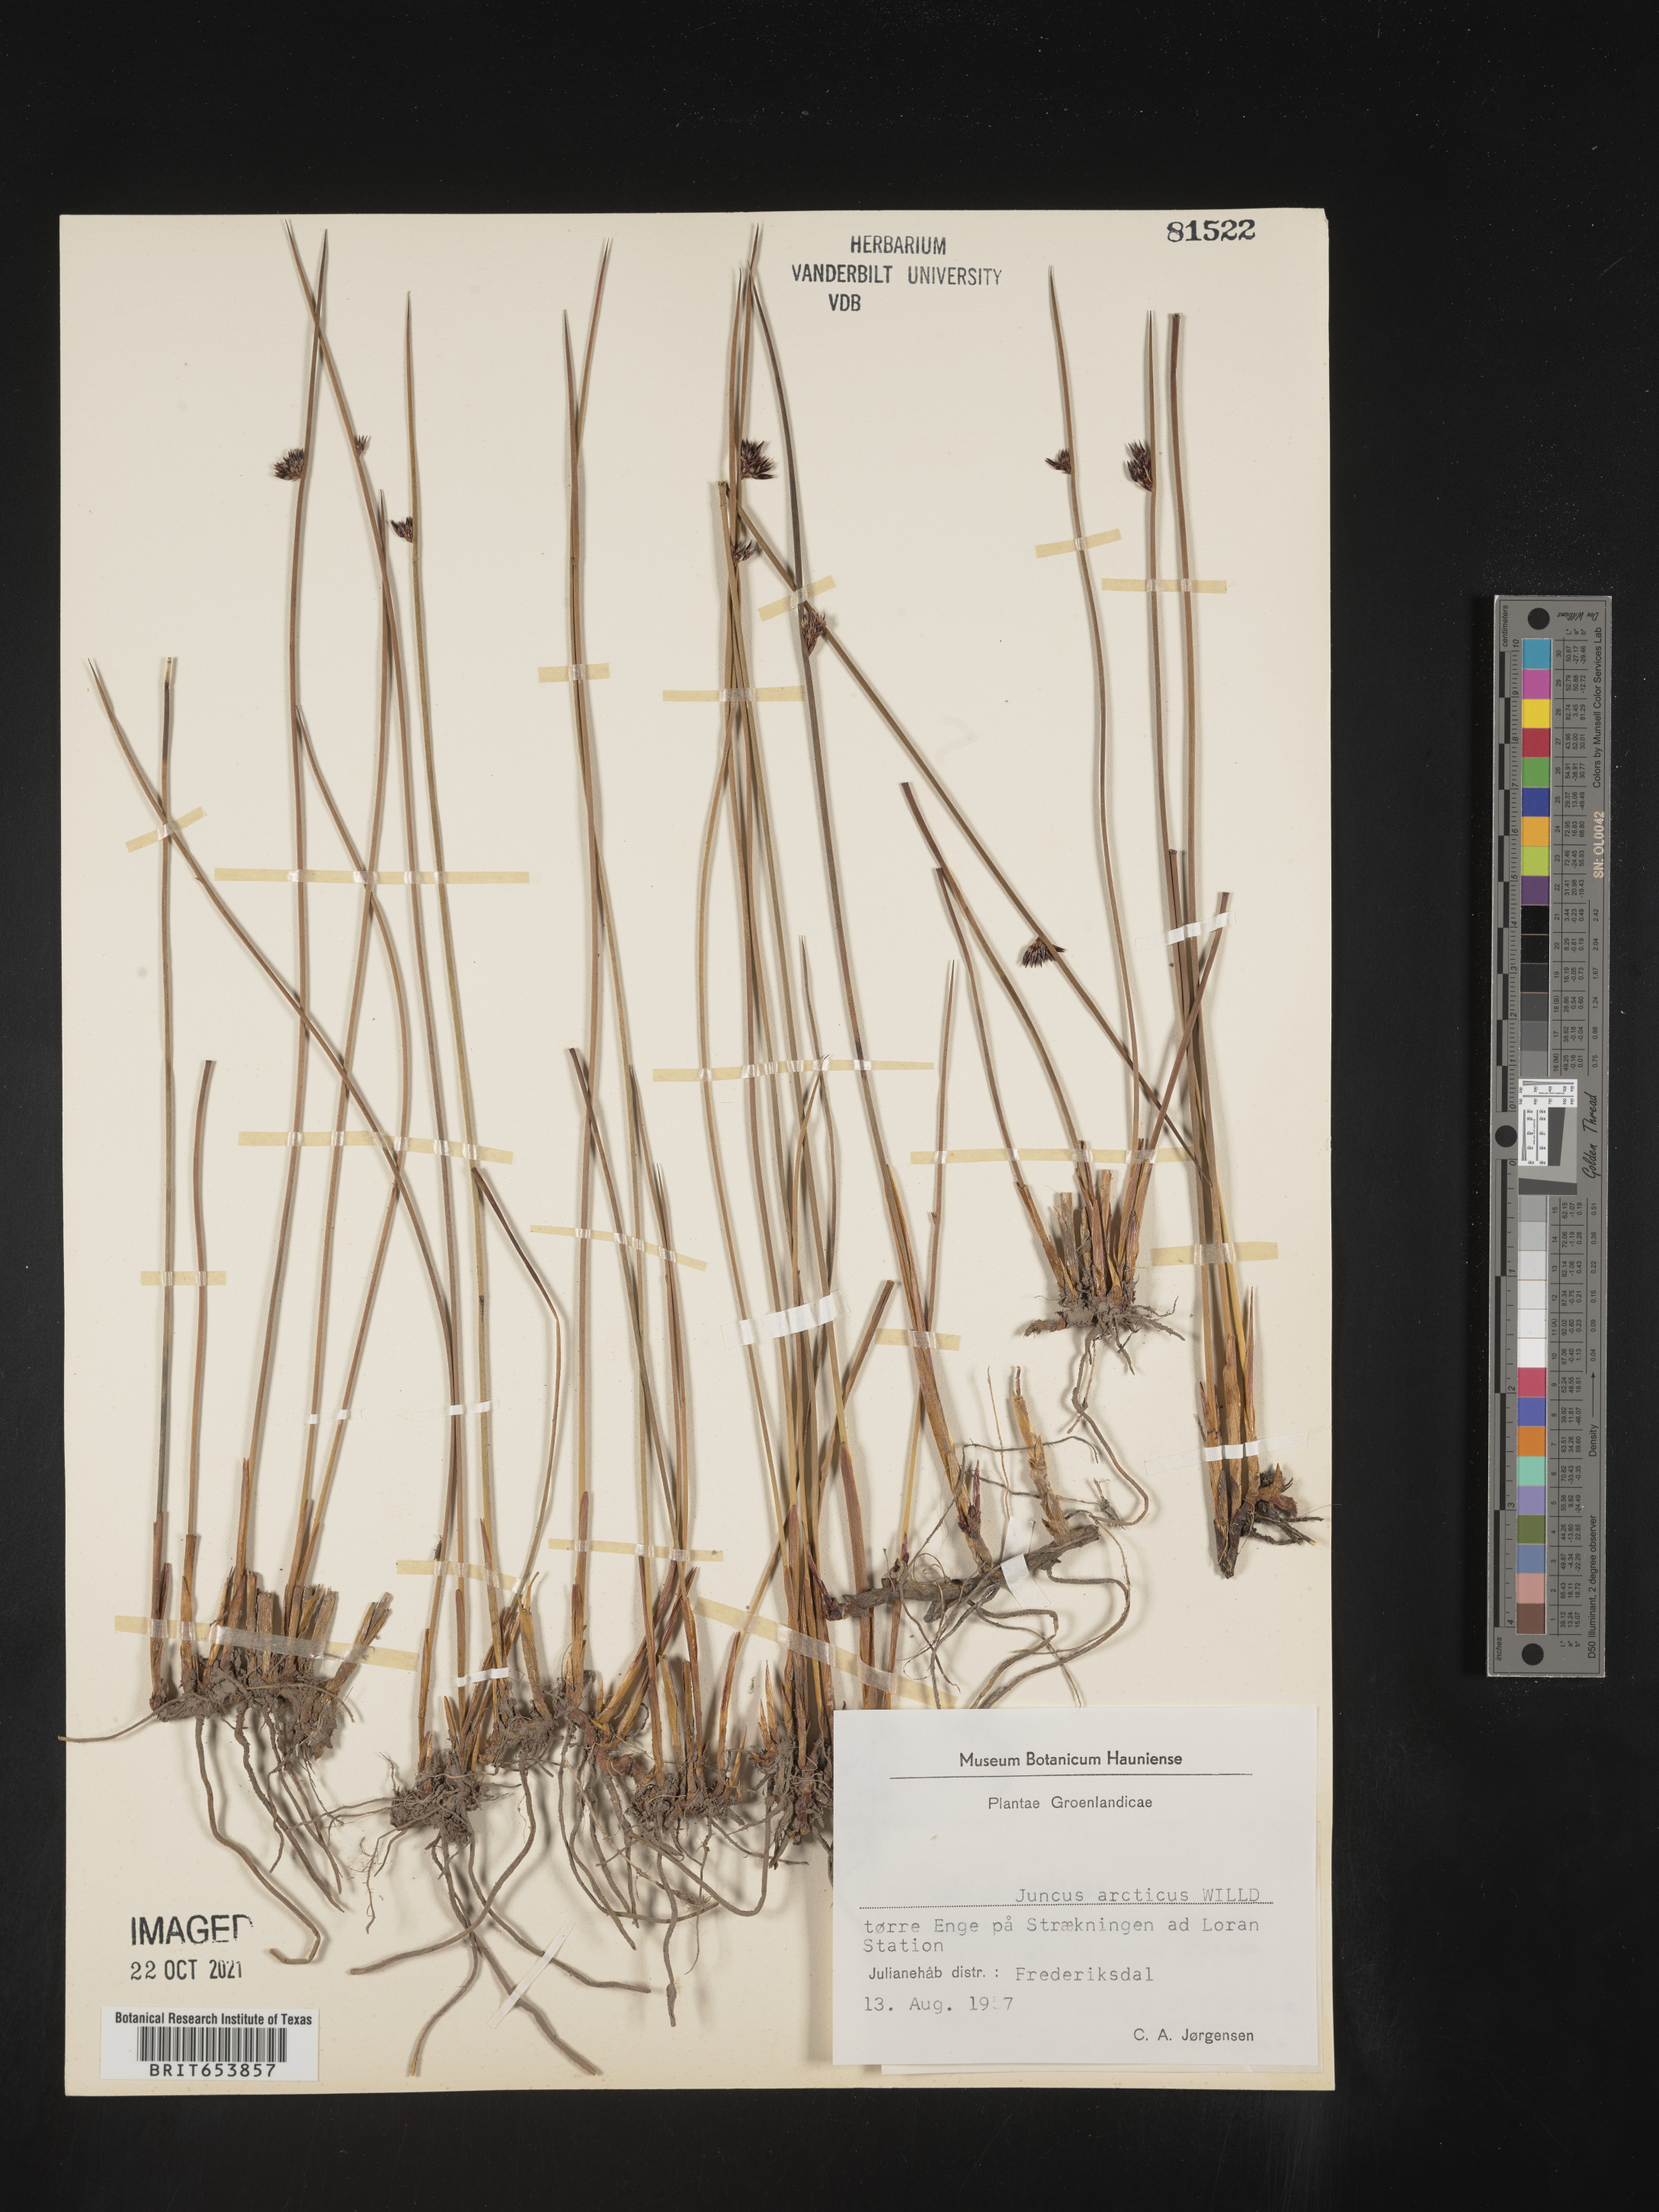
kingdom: Plantae
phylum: Tracheophyta
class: Liliopsida
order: Poales
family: Juncaceae
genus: Juncus
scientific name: Juncus arcticus
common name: Arctic rush
